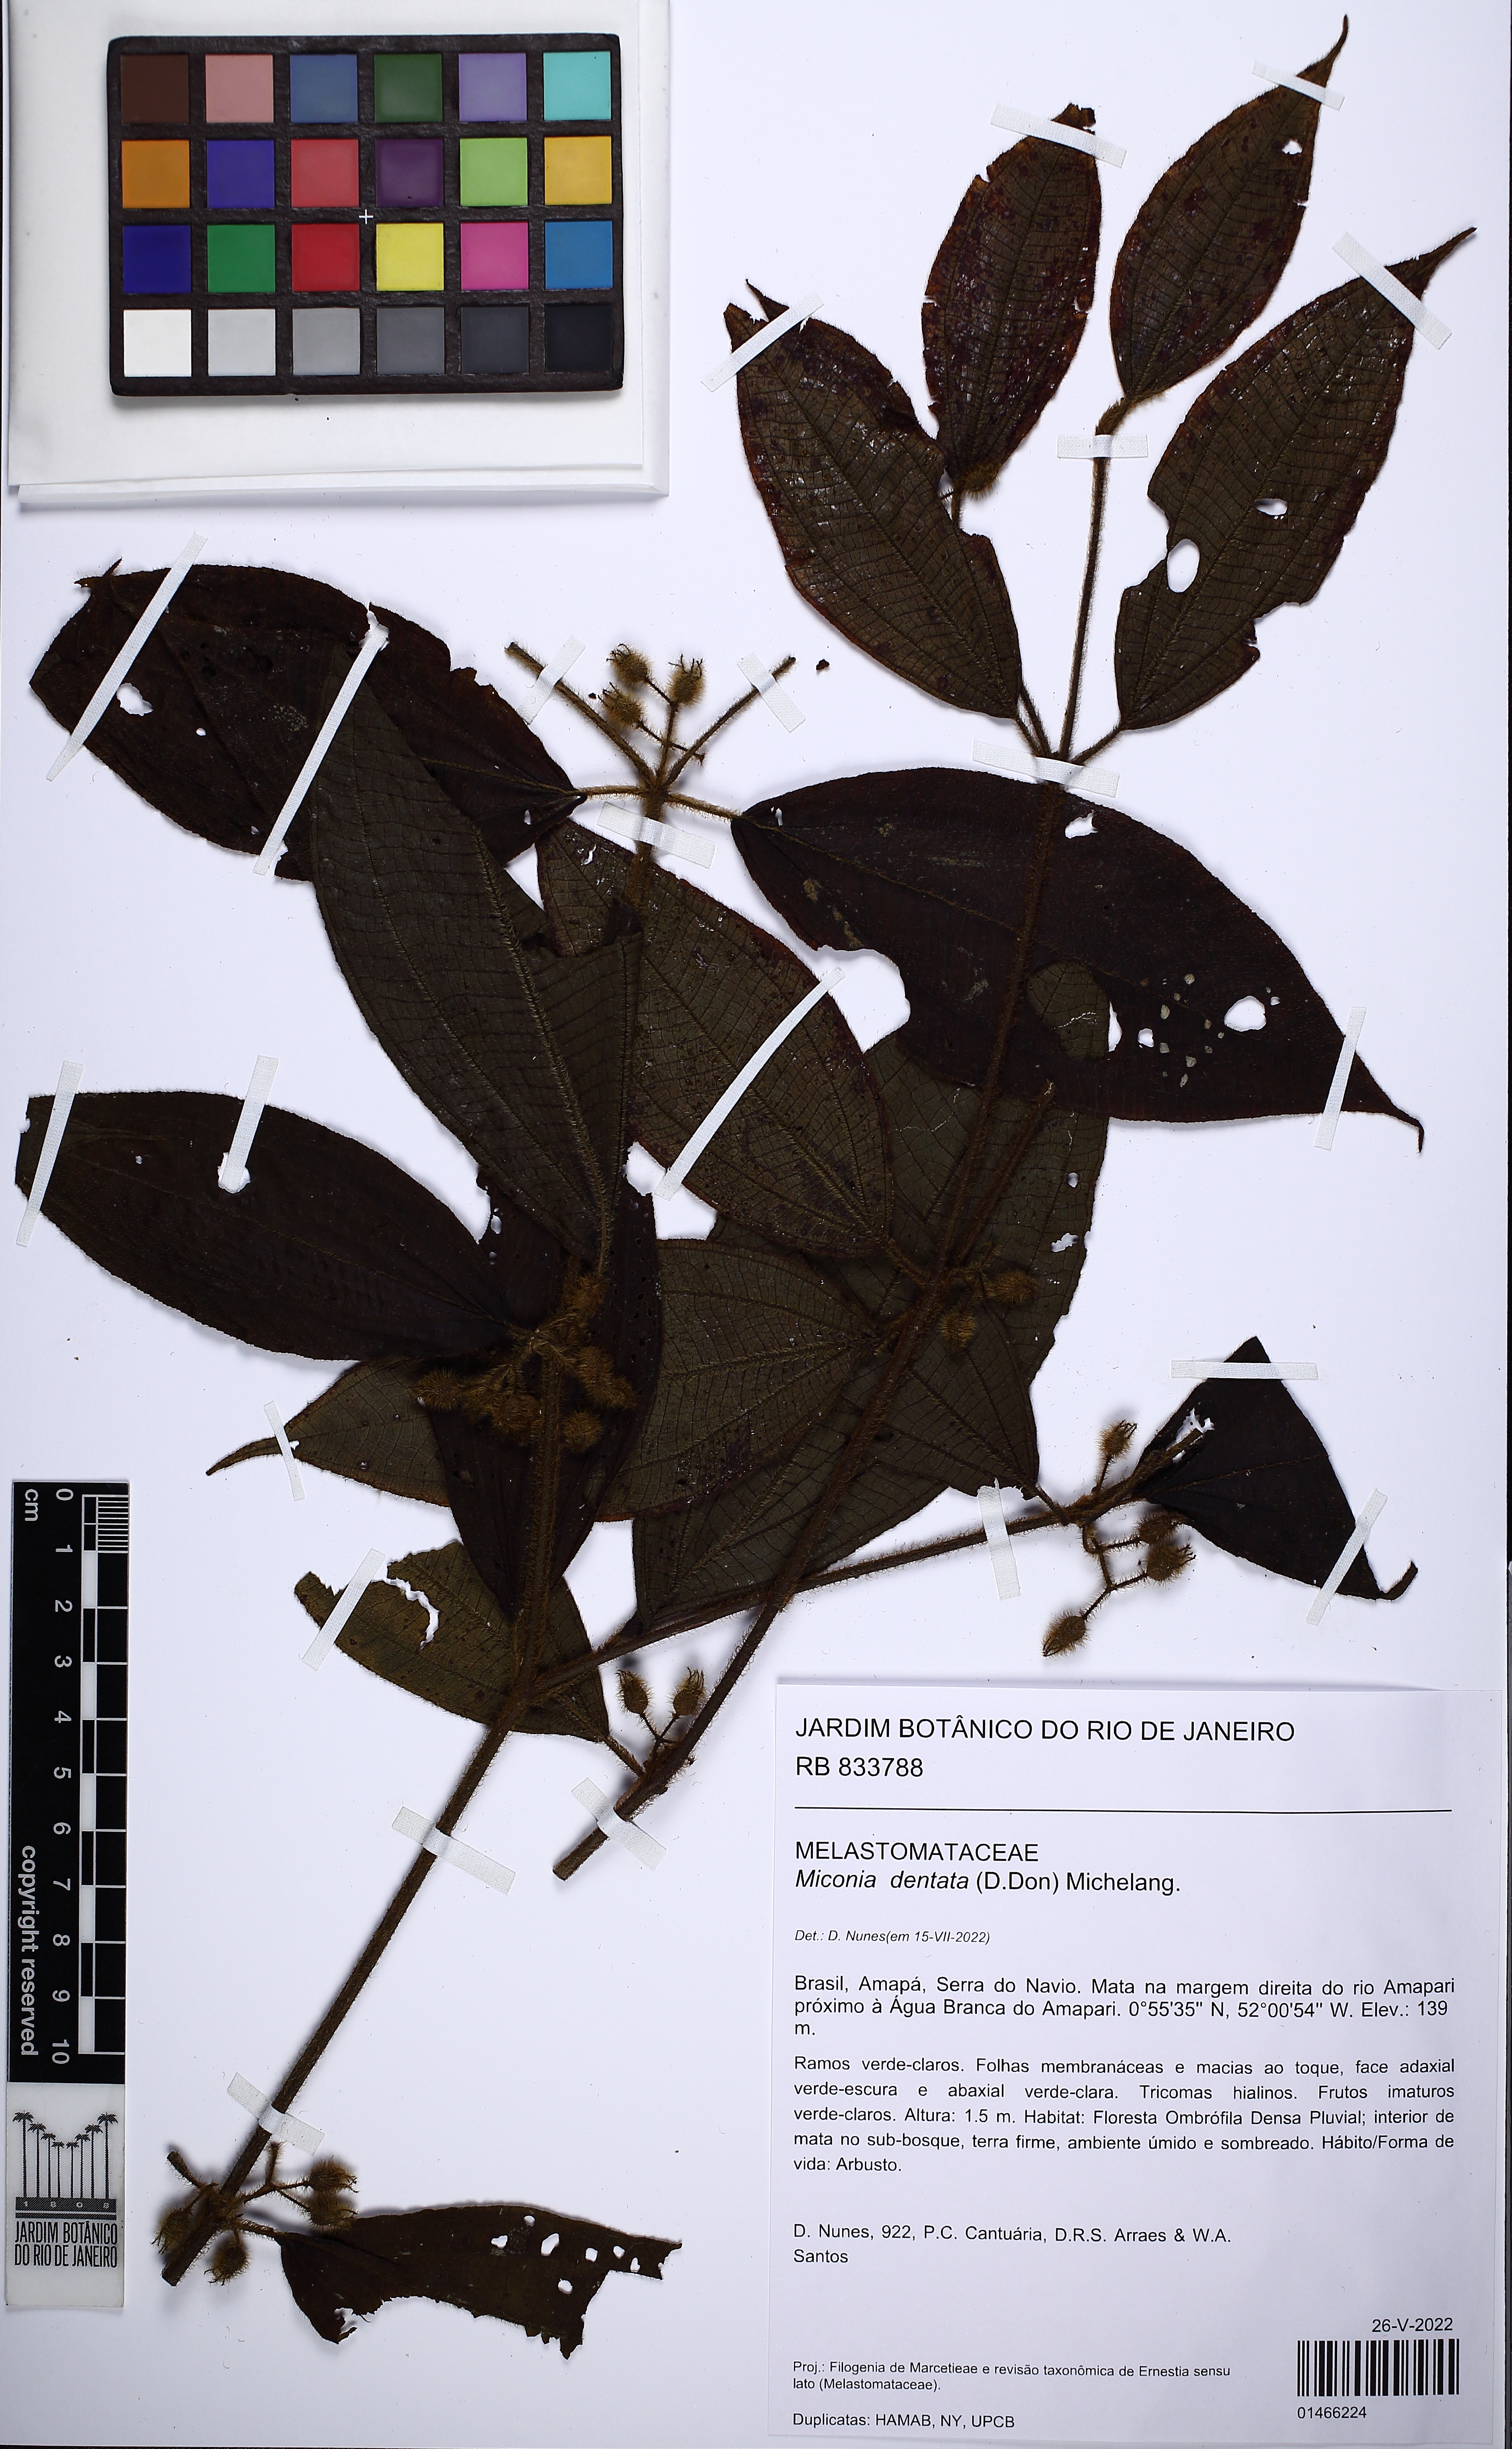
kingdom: Plantae
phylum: Tracheophyta
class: Magnoliopsida
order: Myrtales
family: Melastomataceae
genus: Miconia
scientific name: Miconia dentata
